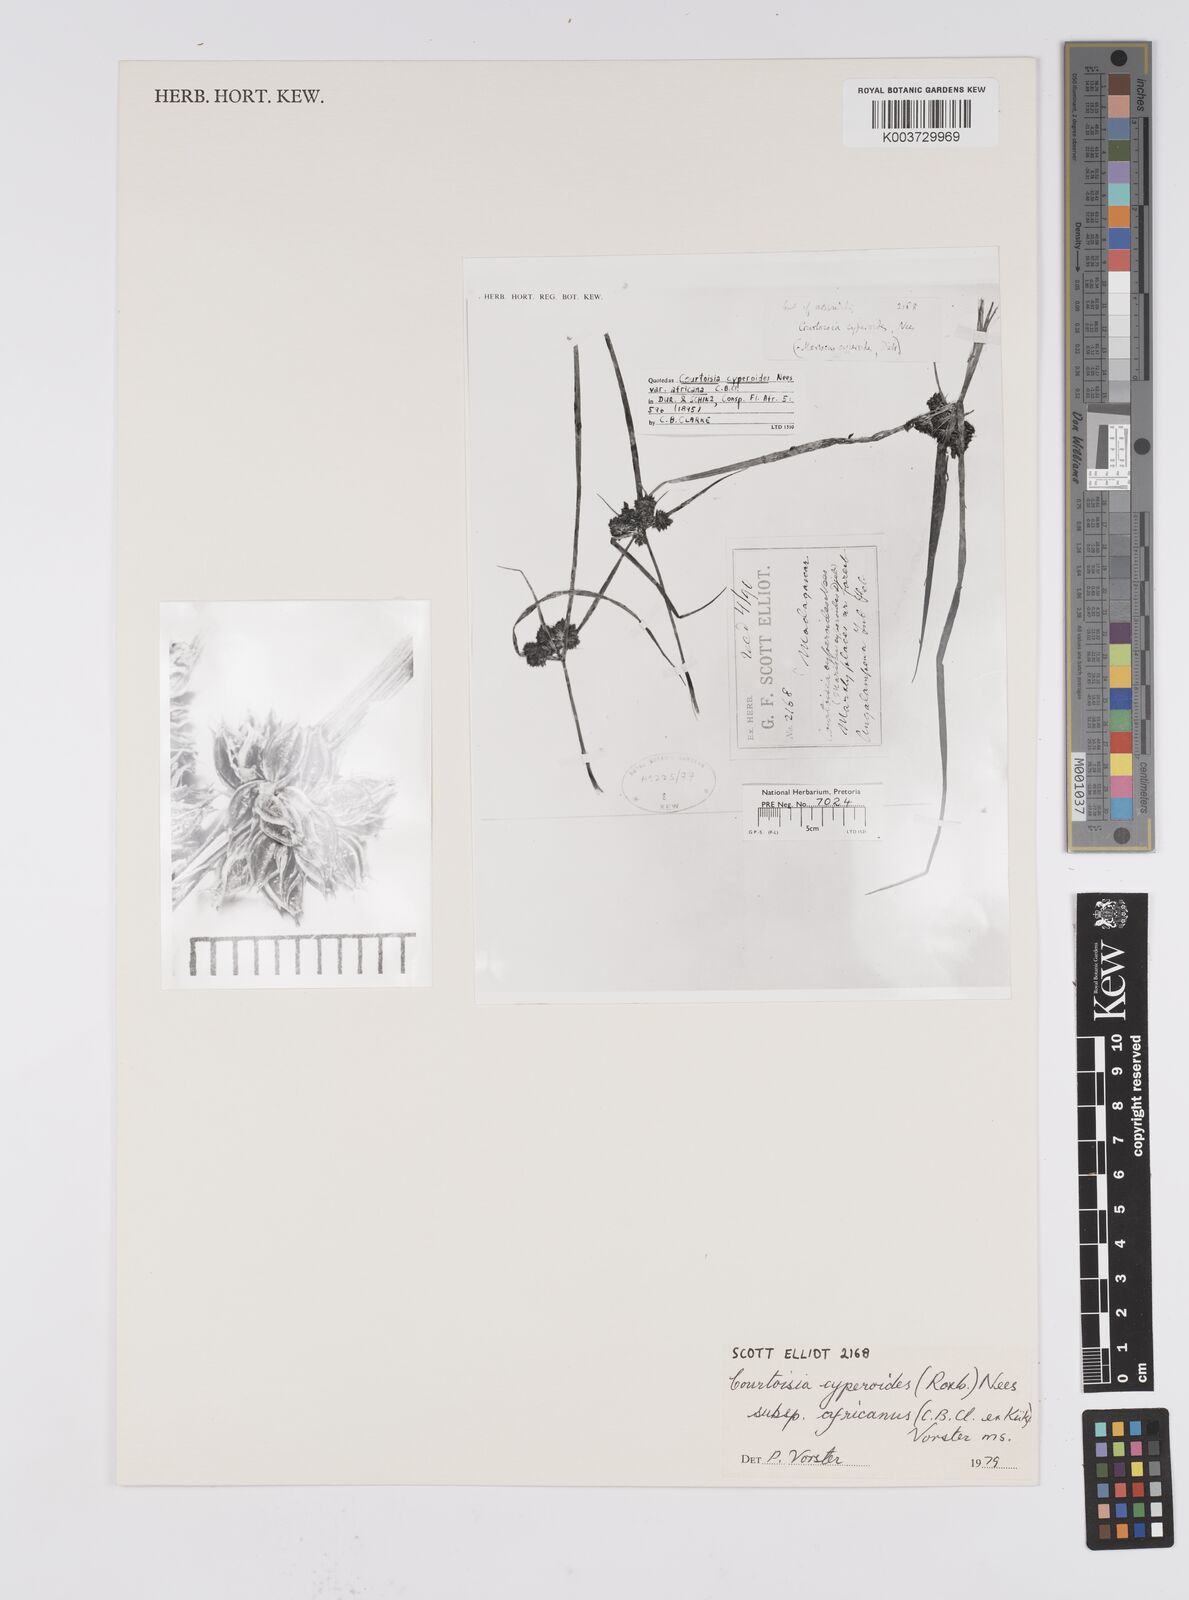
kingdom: Plantae
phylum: Tracheophyta
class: Liliopsida
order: Poales
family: Cyperaceae
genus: Cyperus
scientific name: Cyperus cyperoides
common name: Pacific island flat sedge
